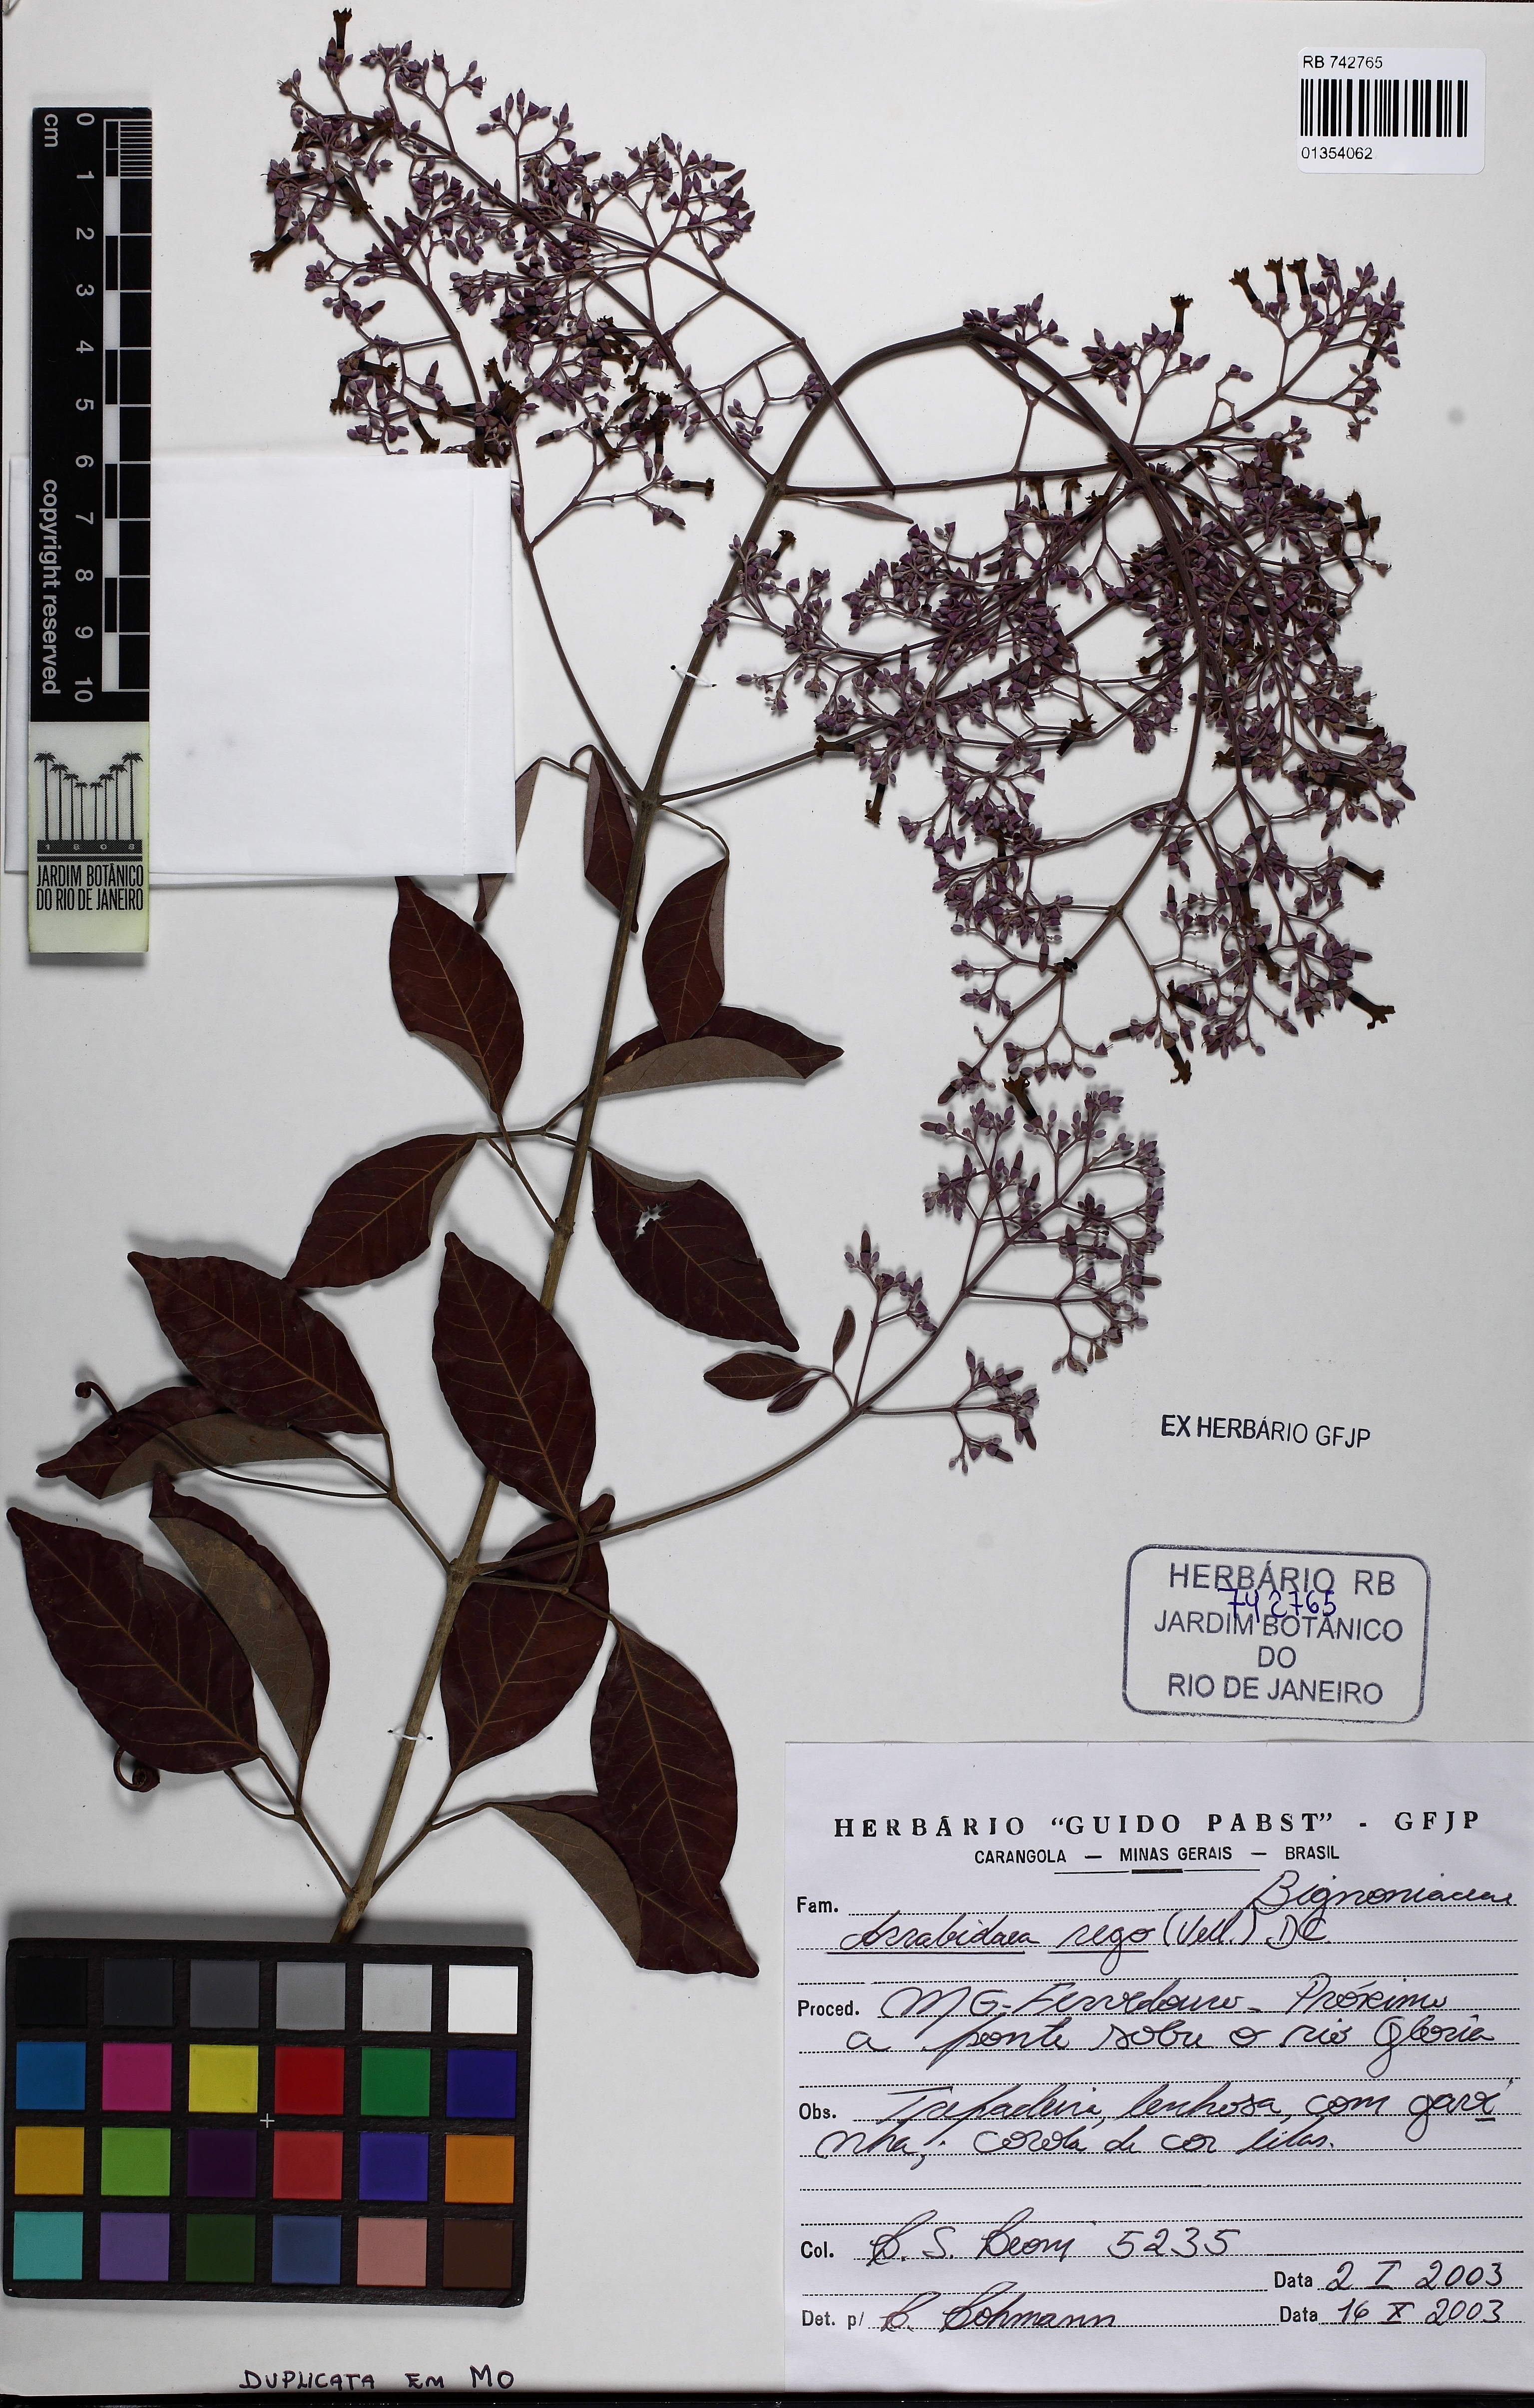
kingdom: Plantae
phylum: Tracheophyta
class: Magnoliopsida
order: Lamiales
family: Bignoniaceae
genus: Fridericia
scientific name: Fridericia rego
